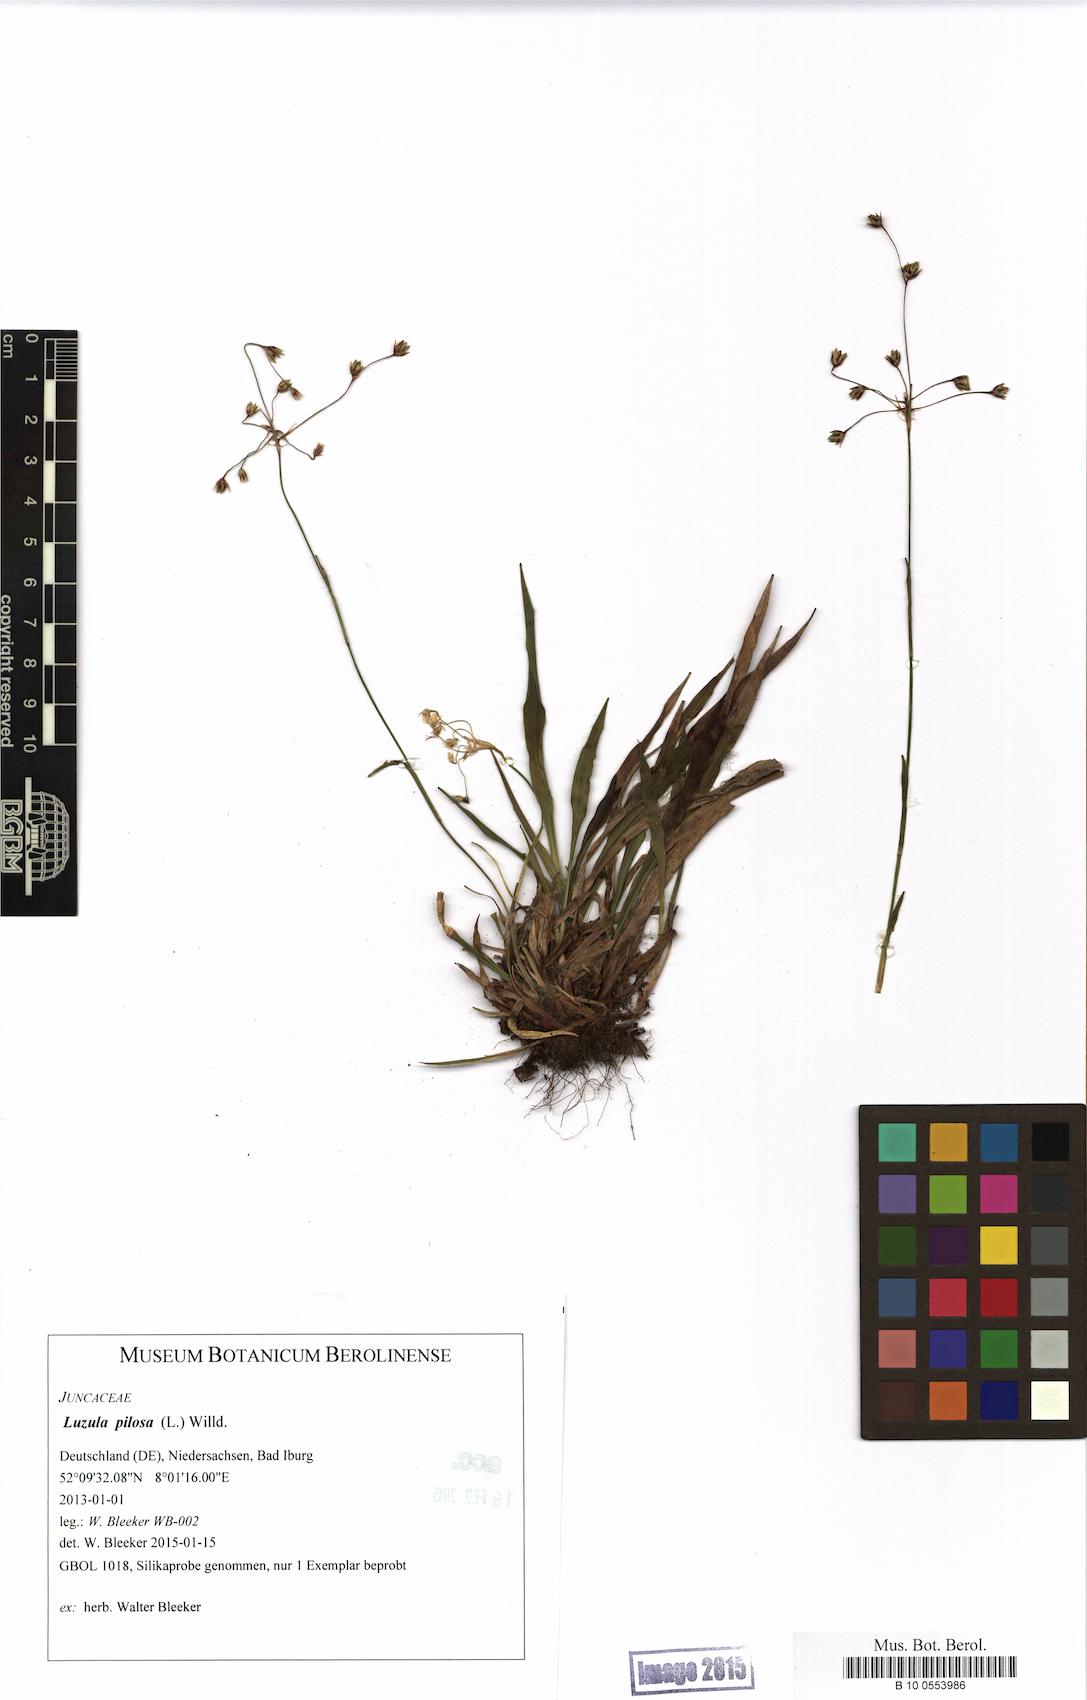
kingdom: Plantae
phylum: Tracheophyta
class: Liliopsida
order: Poales
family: Juncaceae
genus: Luzula
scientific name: Luzula pilosa
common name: Hairy wood-rush
